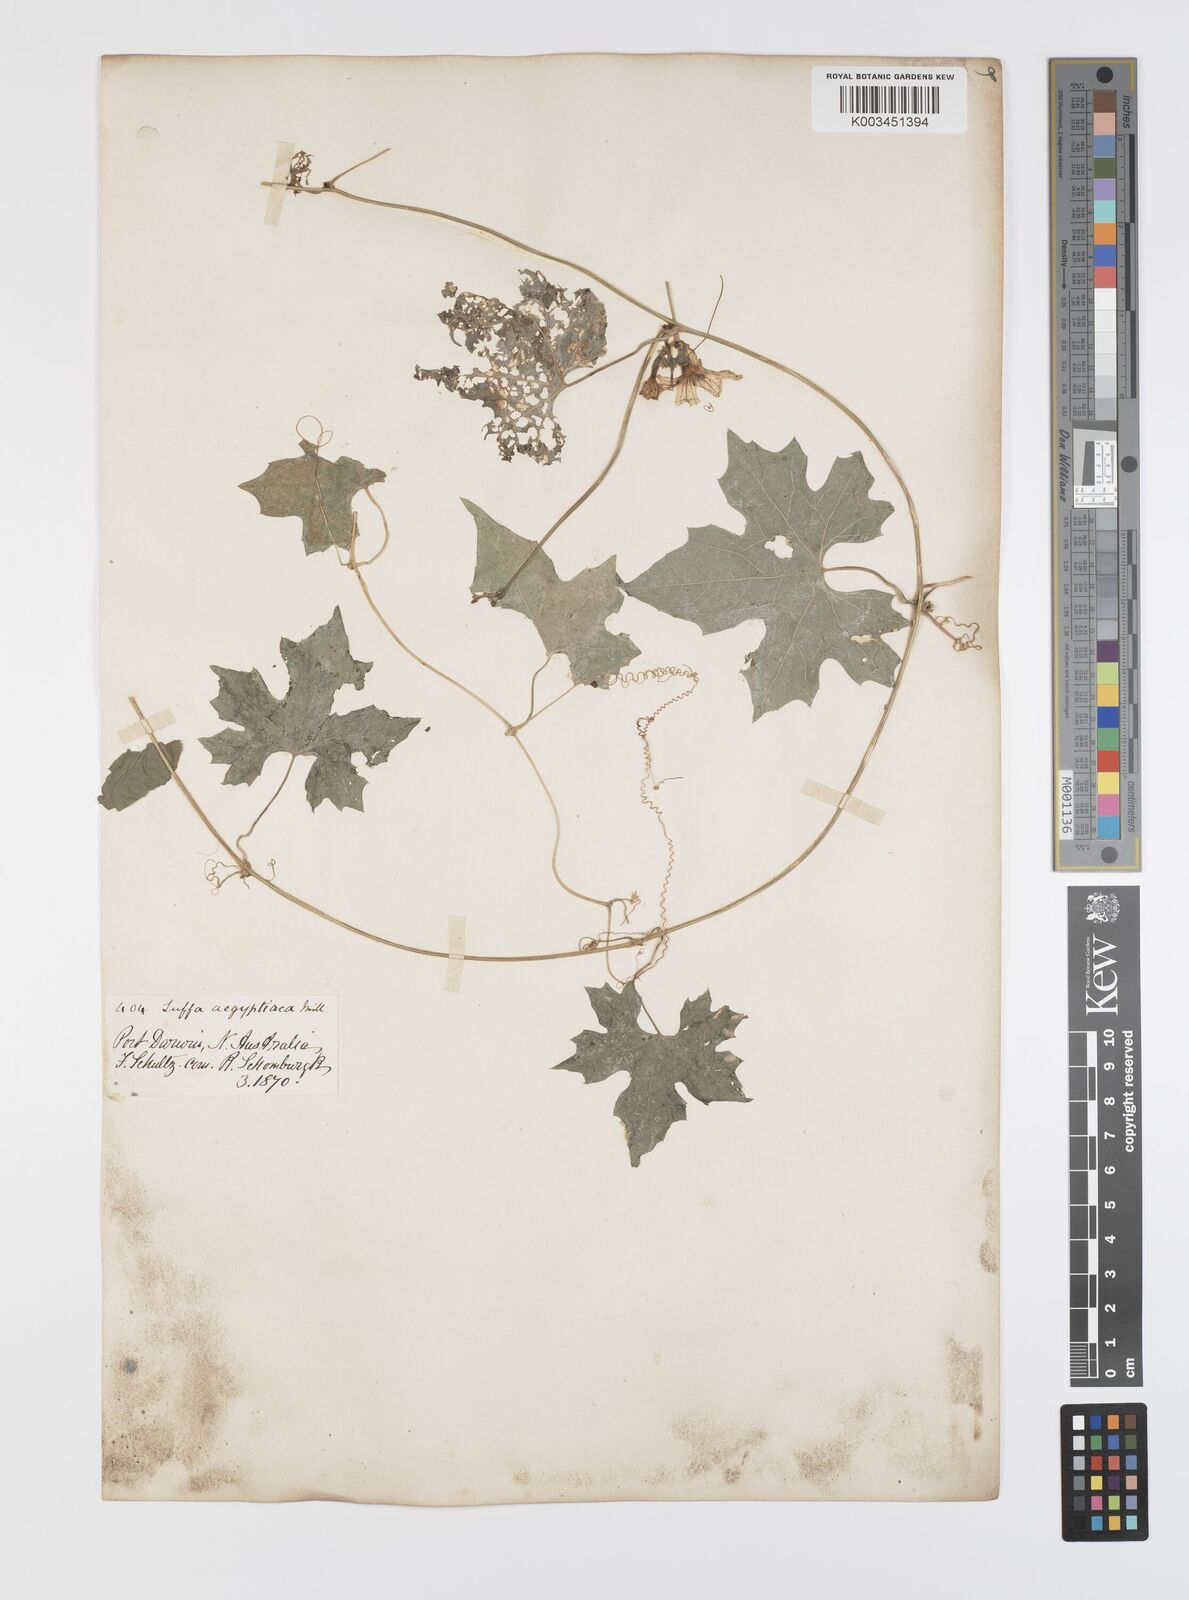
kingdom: Plantae
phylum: Tracheophyta
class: Magnoliopsida
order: Cucurbitales
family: Cucurbitaceae
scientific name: Cucurbitaceae
